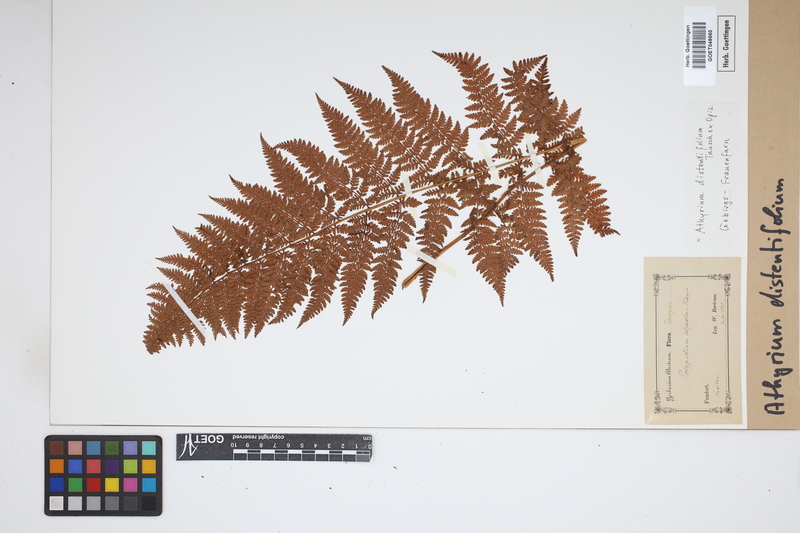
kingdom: Plantae
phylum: Tracheophyta
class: Polypodiopsida
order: Polypodiales
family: Athyriaceae
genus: Pseudathyrium
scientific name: Pseudathyrium alpestre
